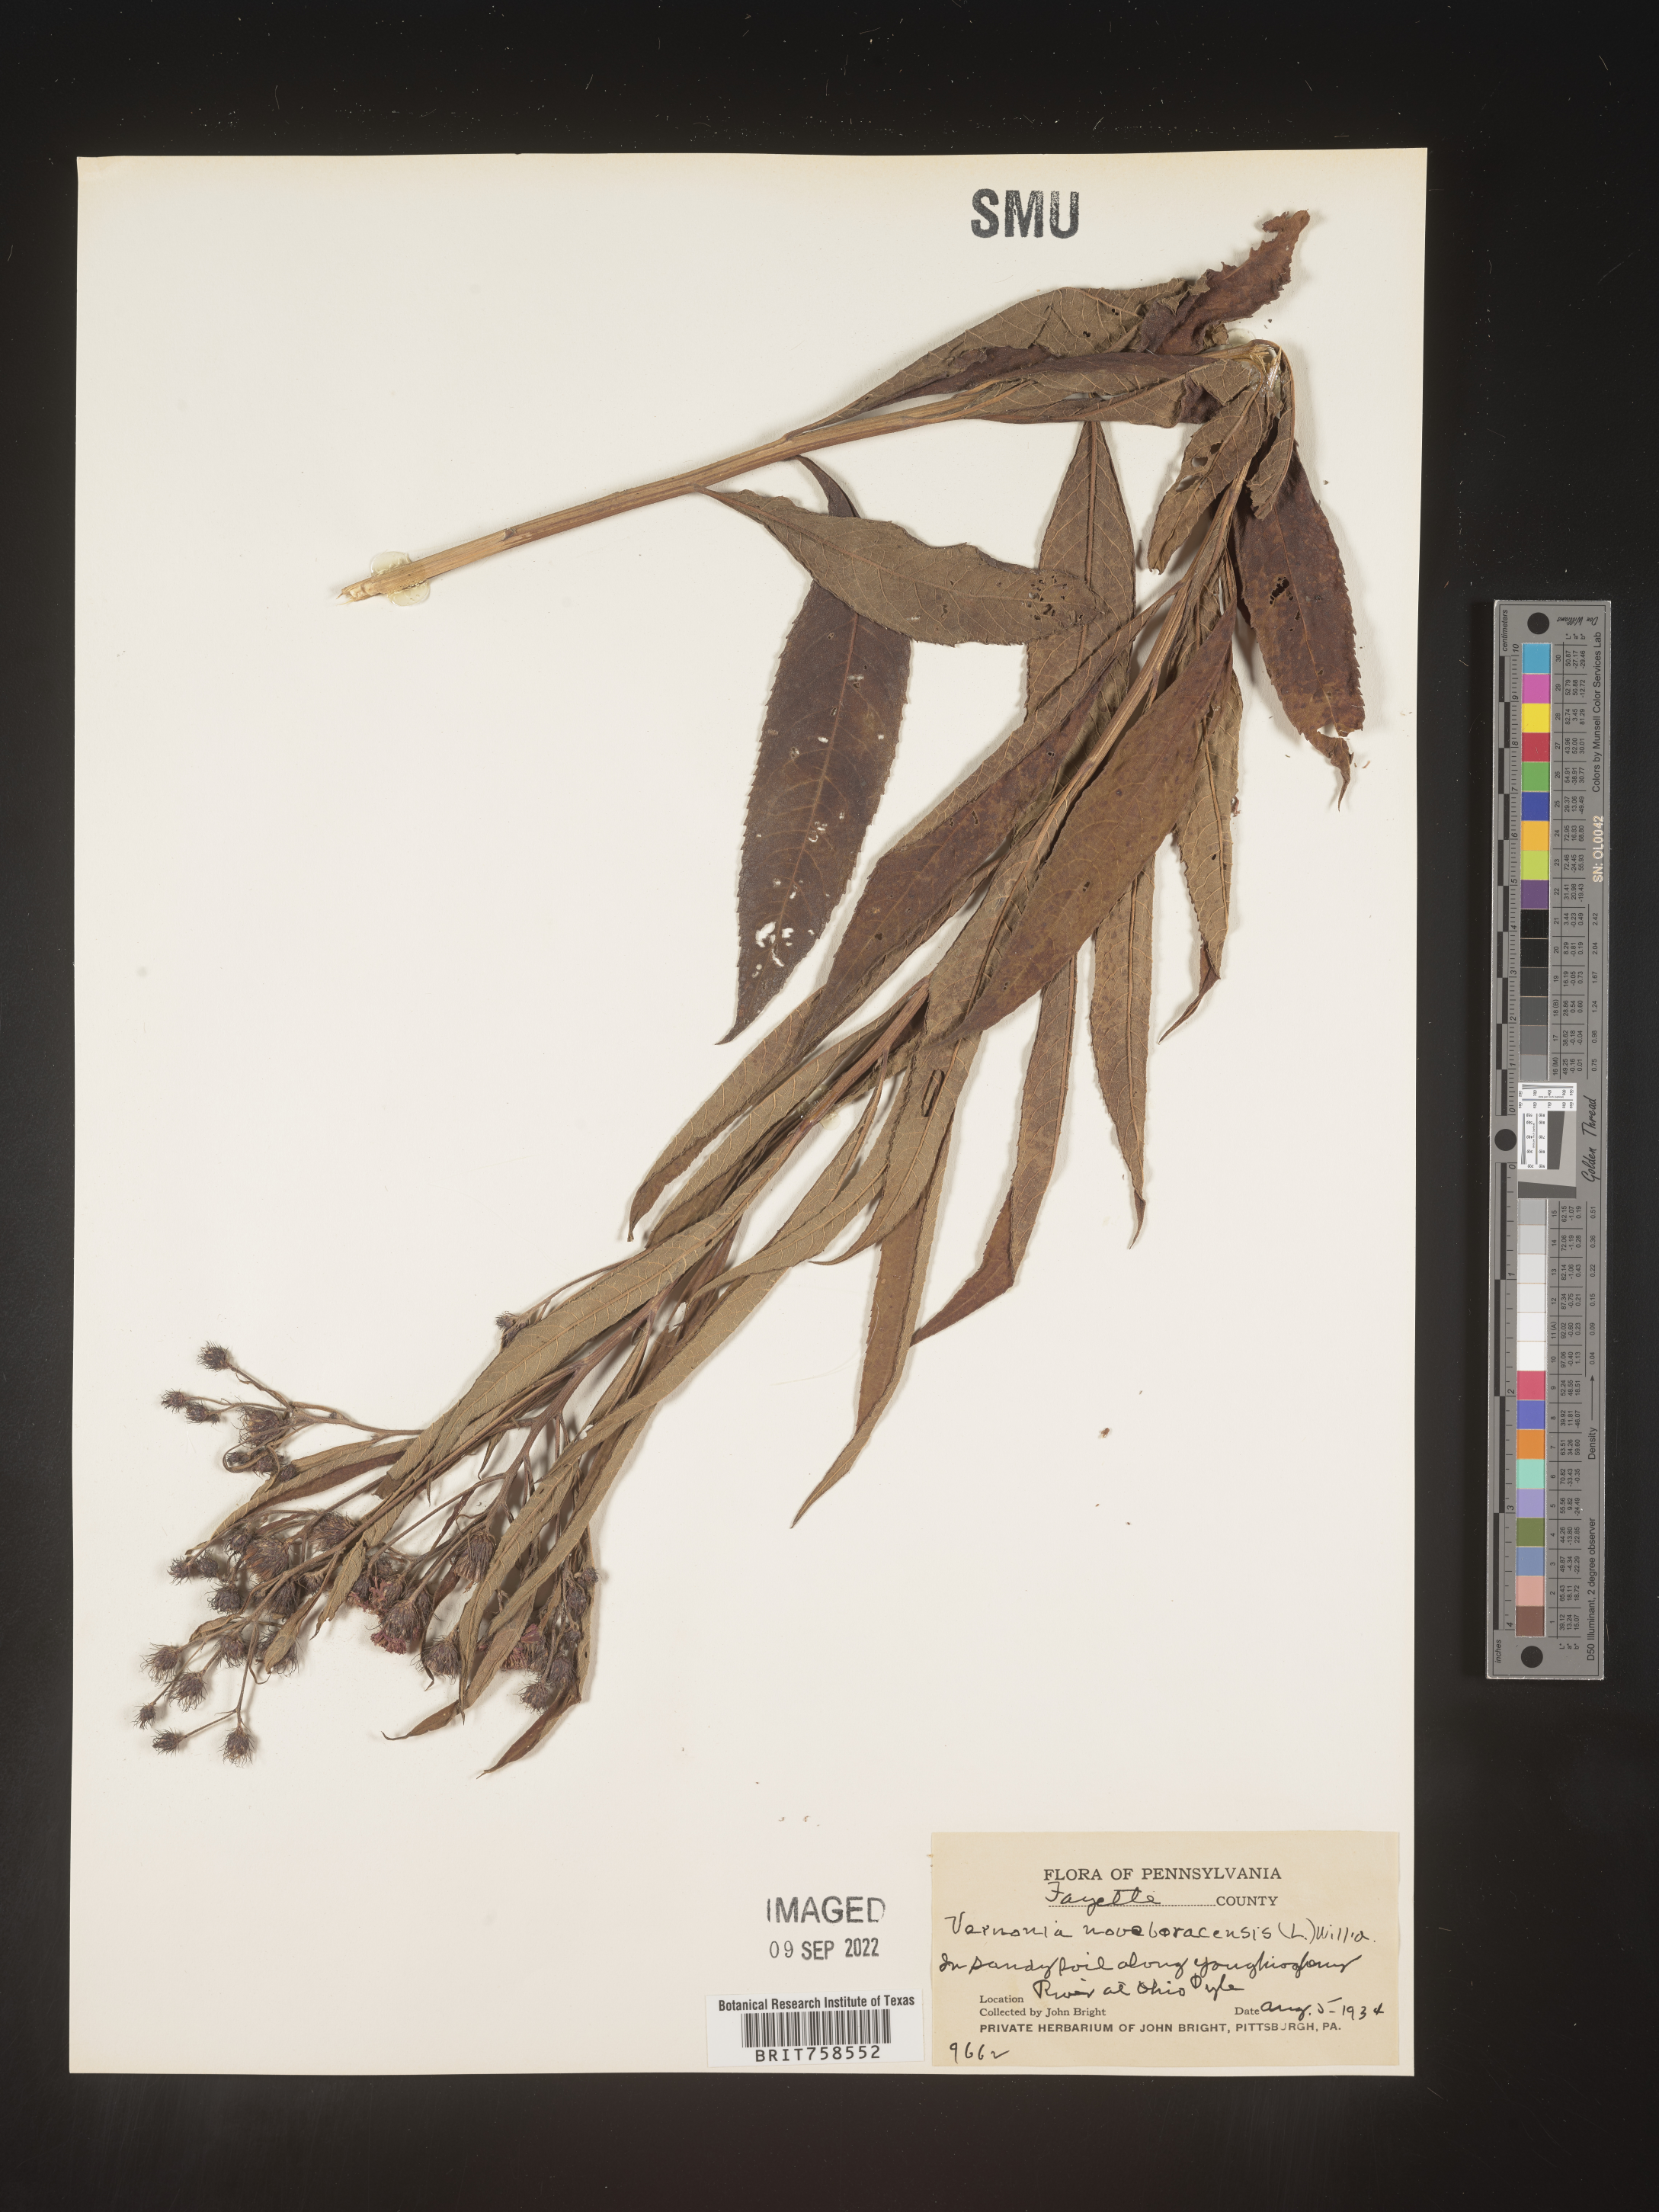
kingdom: Plantae
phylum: Tracheophyta
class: Magnoliopsida
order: Asterales
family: Asteraceae
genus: Vernonia
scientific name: Vernonia noveboracensis
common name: New york ironweed
